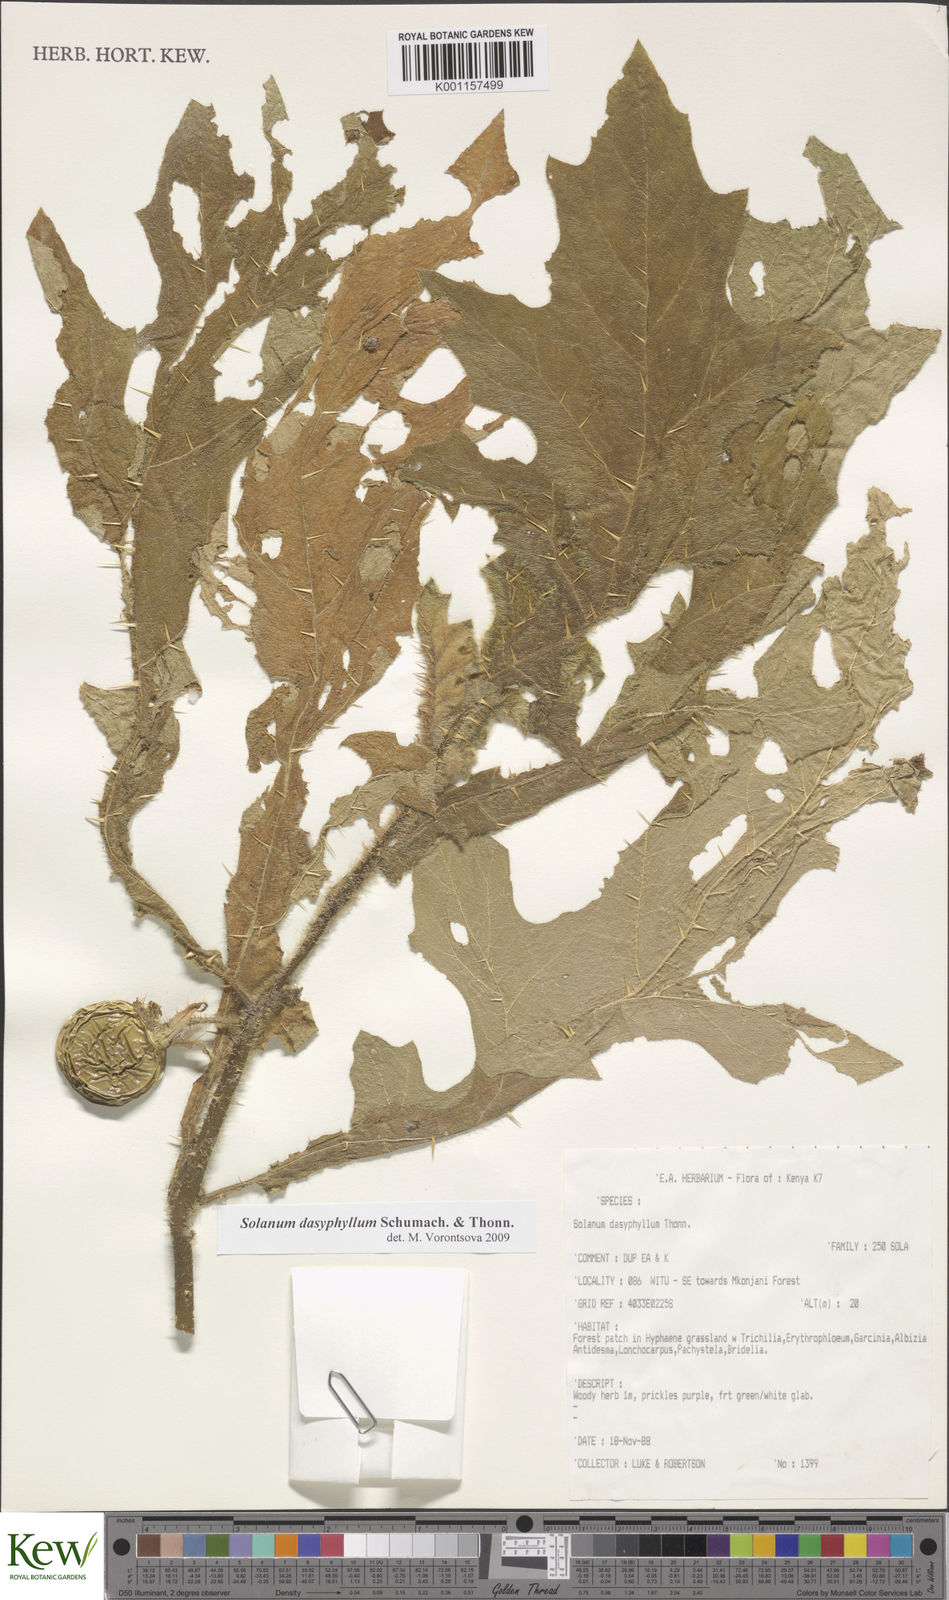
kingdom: Plantae
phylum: Tracheophyta
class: Magnoliopsida
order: Solanales
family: Solanaceae
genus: Solanum
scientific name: Solanum dasyphyllum
